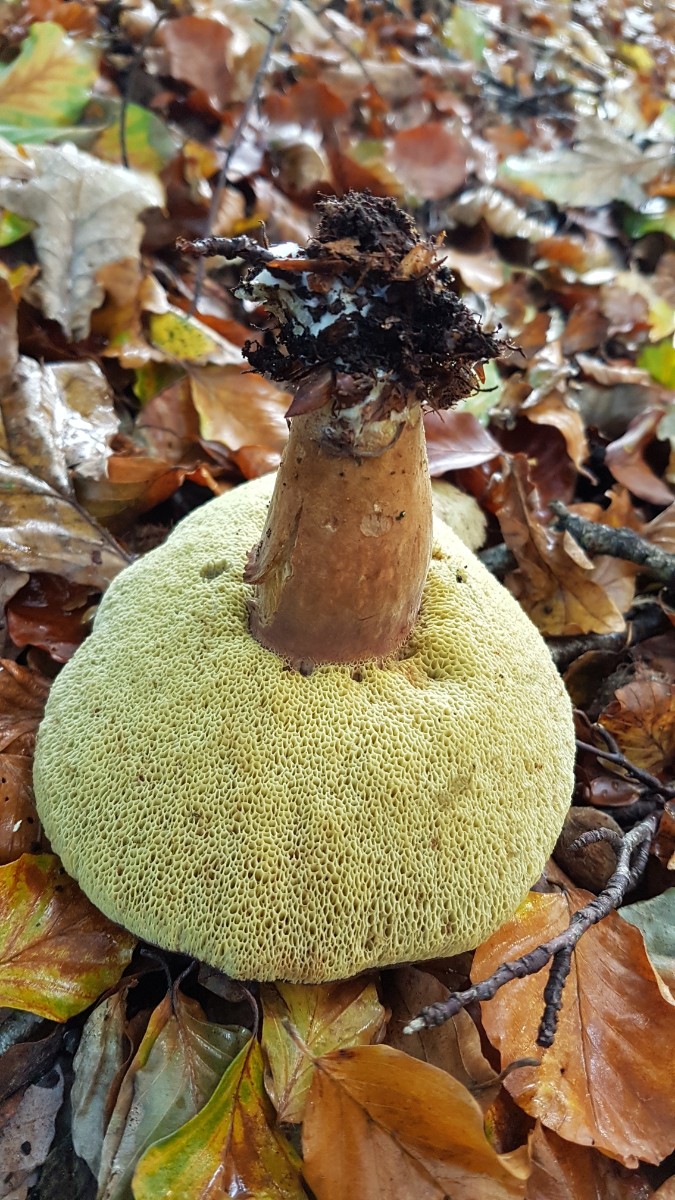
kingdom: Fungi
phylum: Basidiomycota
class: Agaricomycetes
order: Boletales
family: Boletaceae
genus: Imleria
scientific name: Imleria badia
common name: brunstokket rørhat
